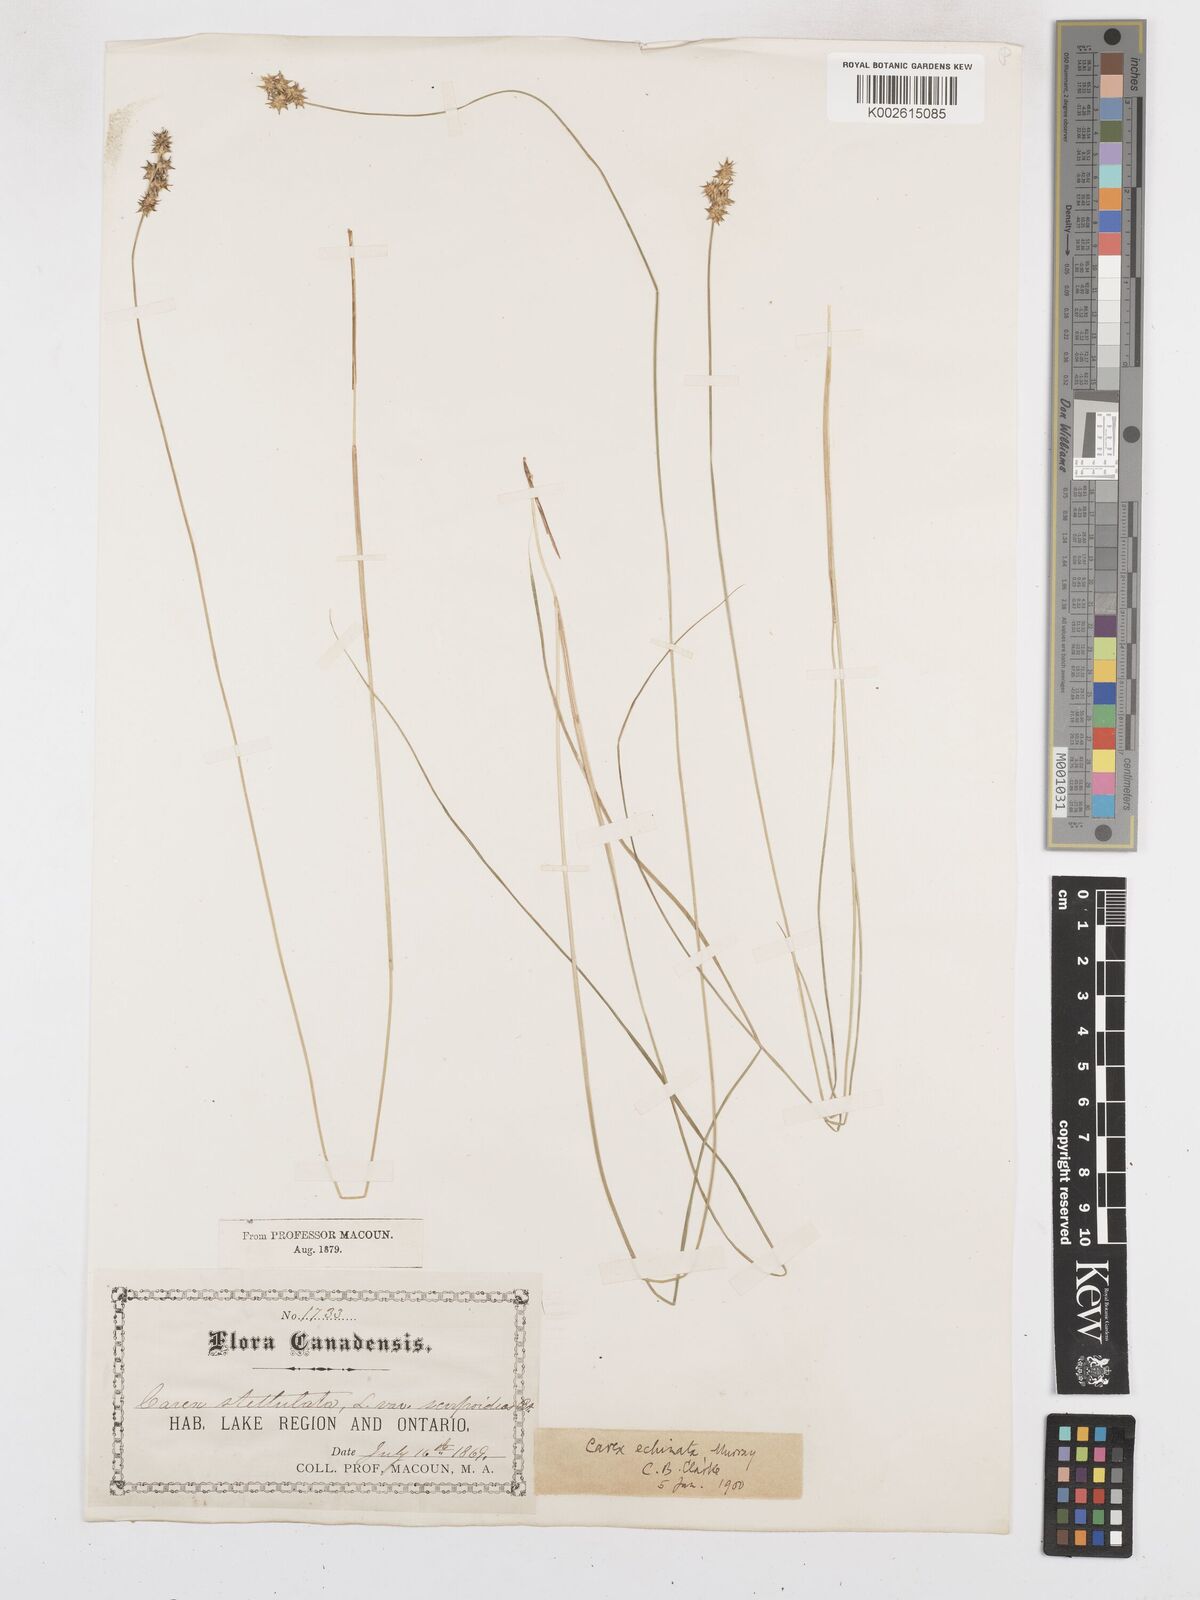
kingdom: Plantae
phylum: Tracheophyta
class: Liliopsida
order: Poales
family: Cyperaceae
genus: Carex
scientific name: Carex echinata
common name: Star sedge
